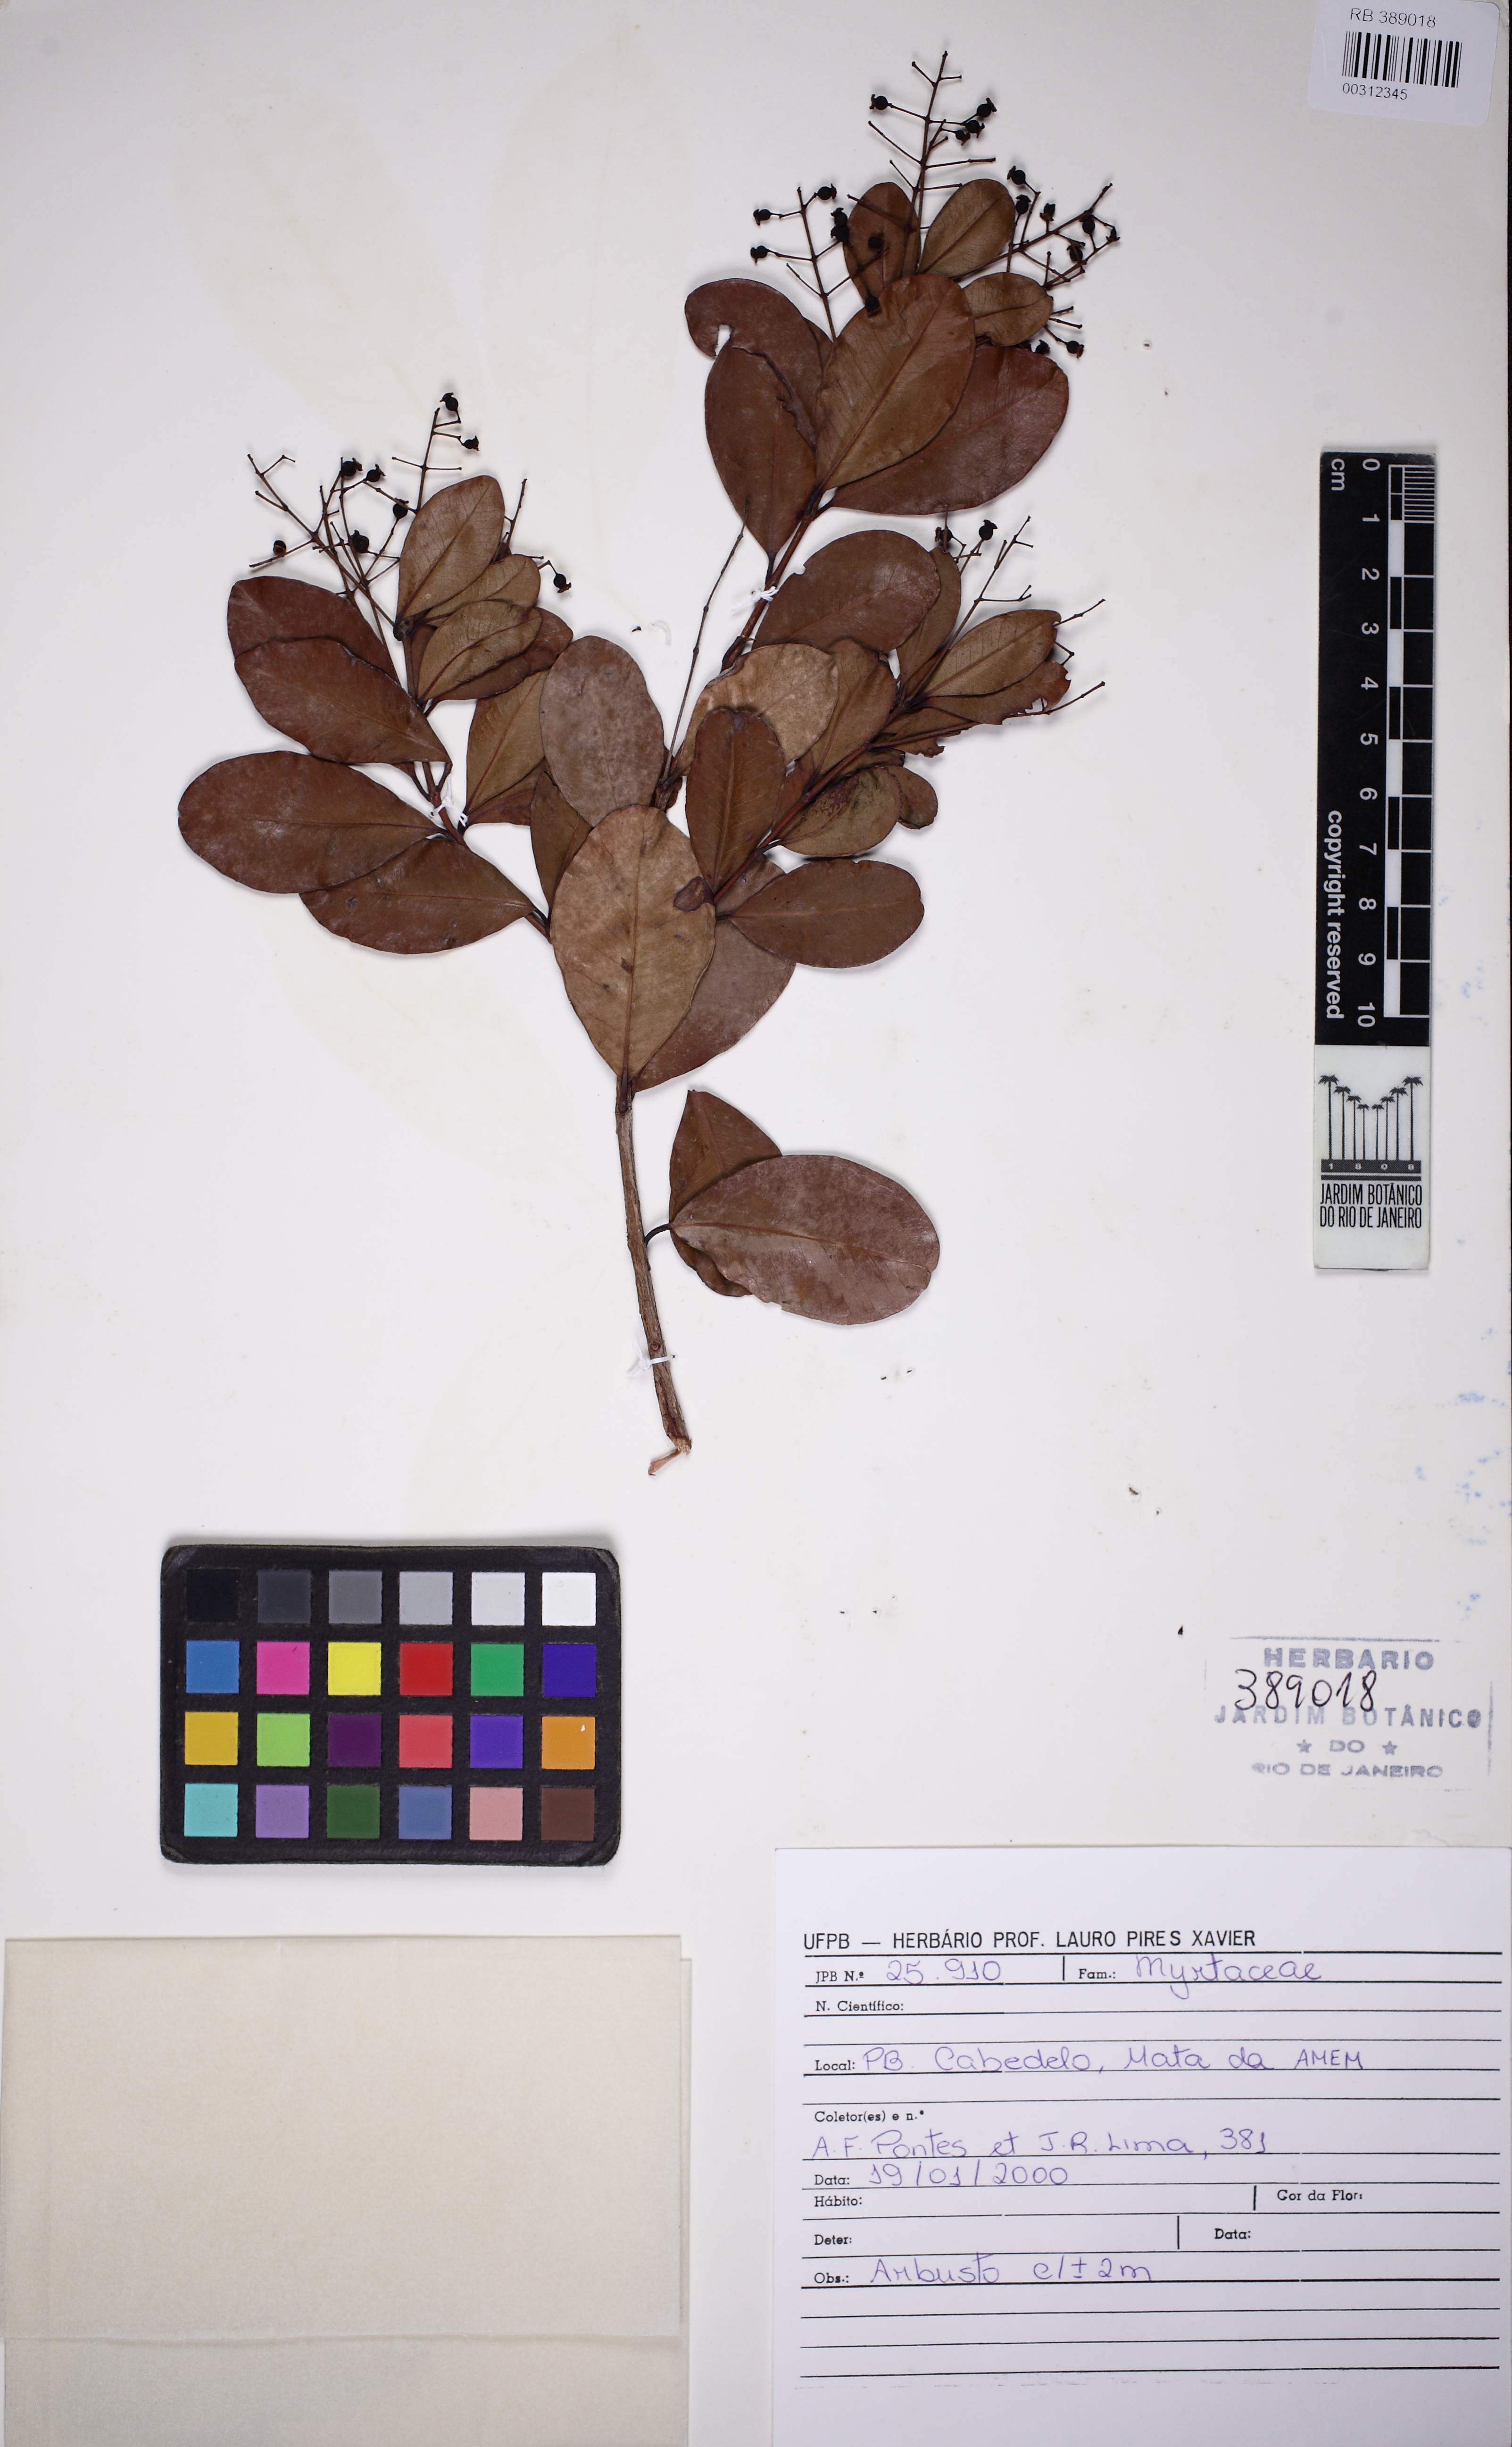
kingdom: Plantae
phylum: Tracheophyta
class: Magnoliopsida
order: Myrtales
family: Myrtaceae
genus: Myrcia
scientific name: Myrcia guianensis
